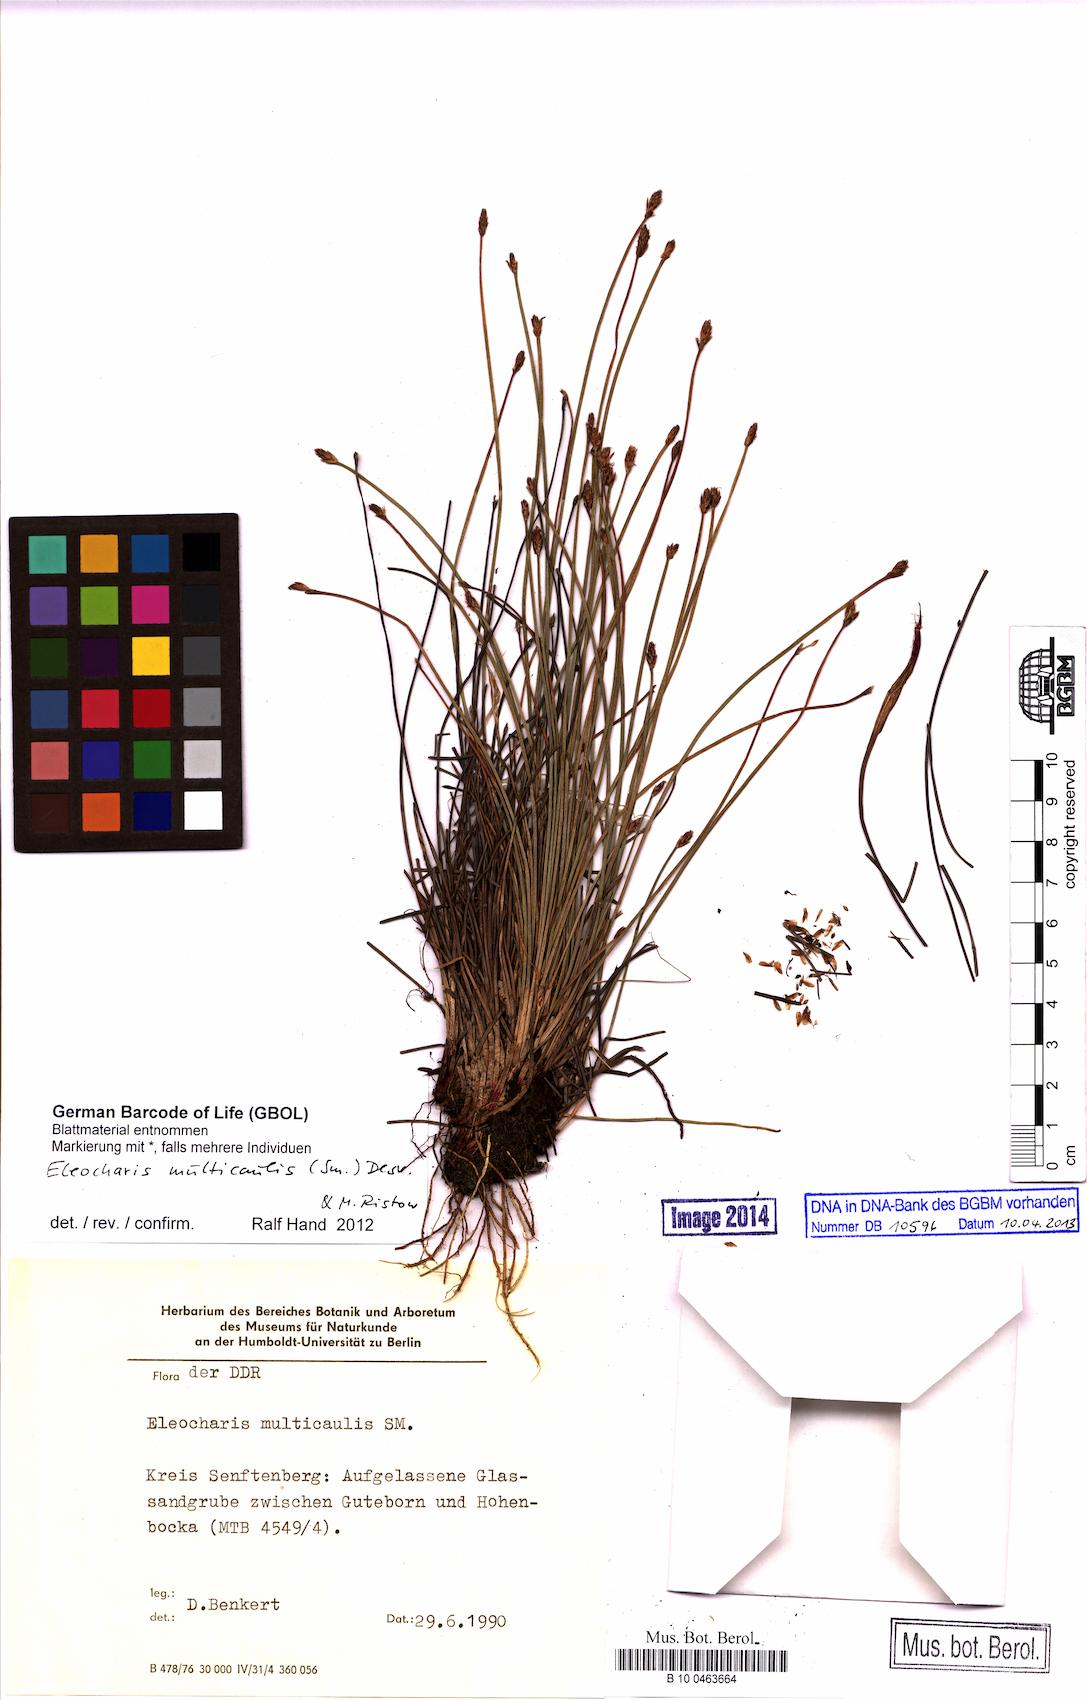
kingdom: Plantae
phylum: Tracheophyta
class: Liliopsida
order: Poales
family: Cyperaceae
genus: Eleocharis
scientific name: Eleocharis multicaulis
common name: Many-stalked spike-rush
